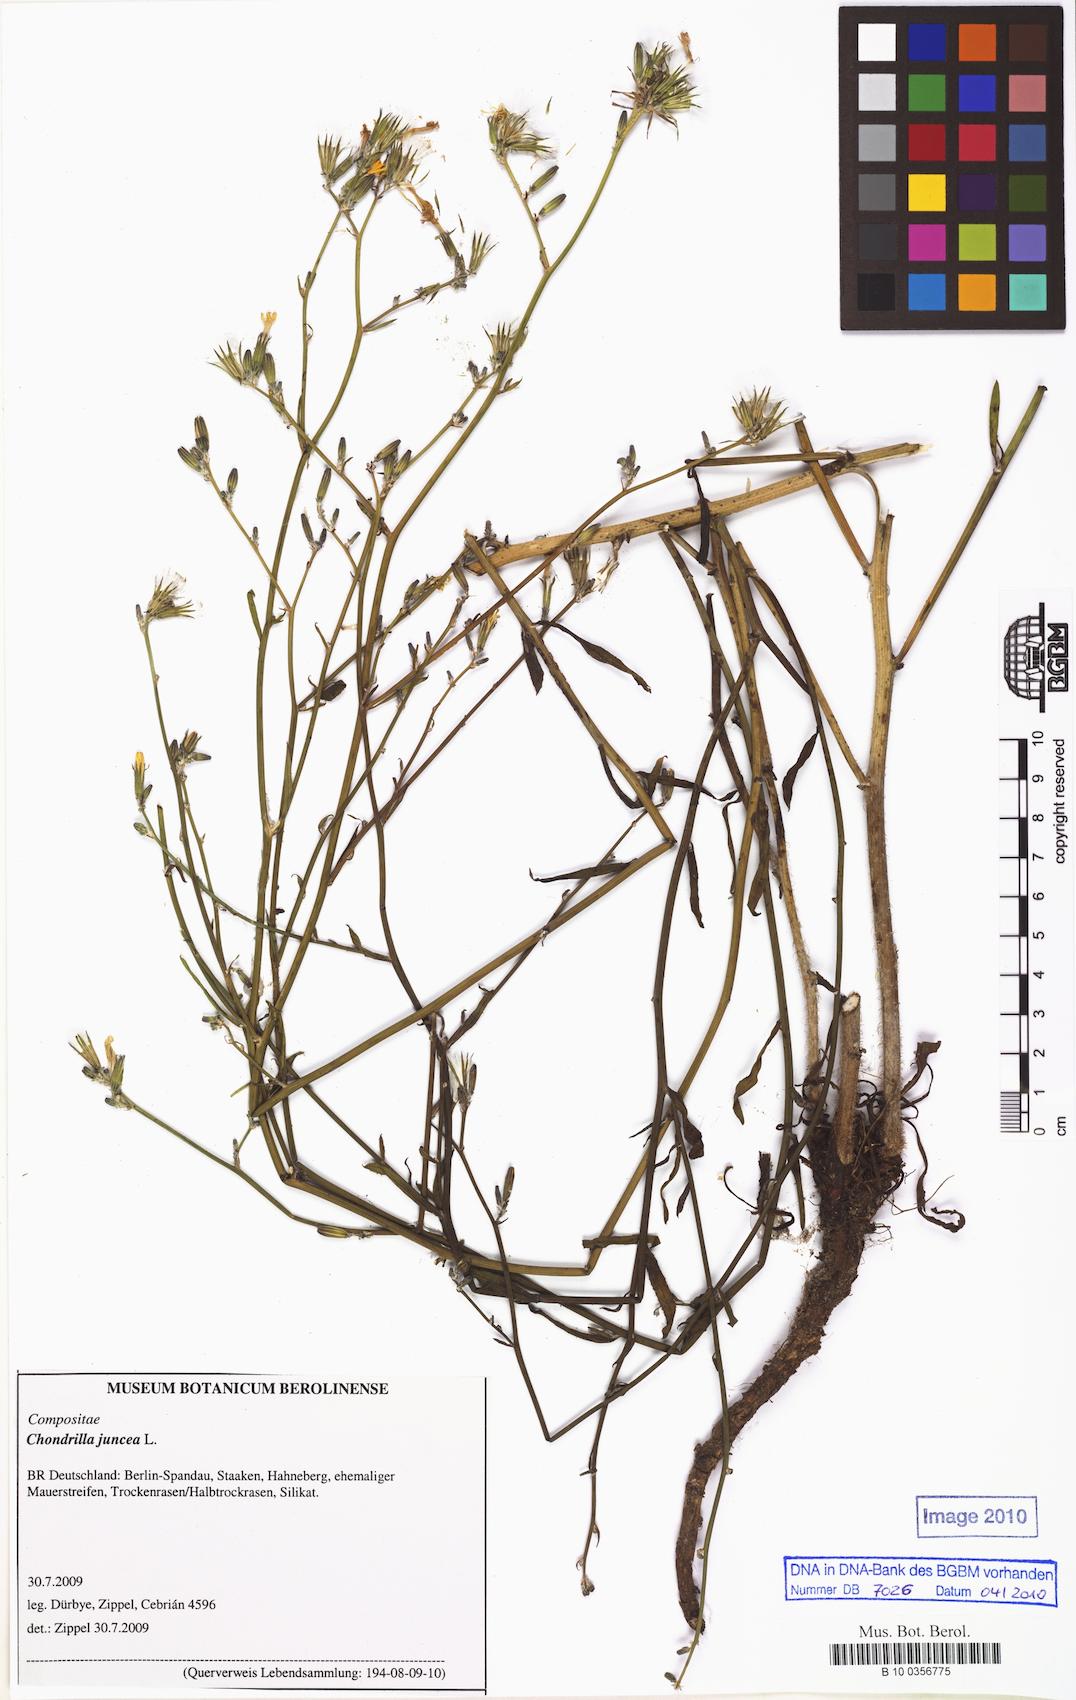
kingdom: Plantae
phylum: Tracheophyta
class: Magnoliopsida
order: Asterales
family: Asteraceae
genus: Chondrilla
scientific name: Chondrilla juncea
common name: Skeleton weed
